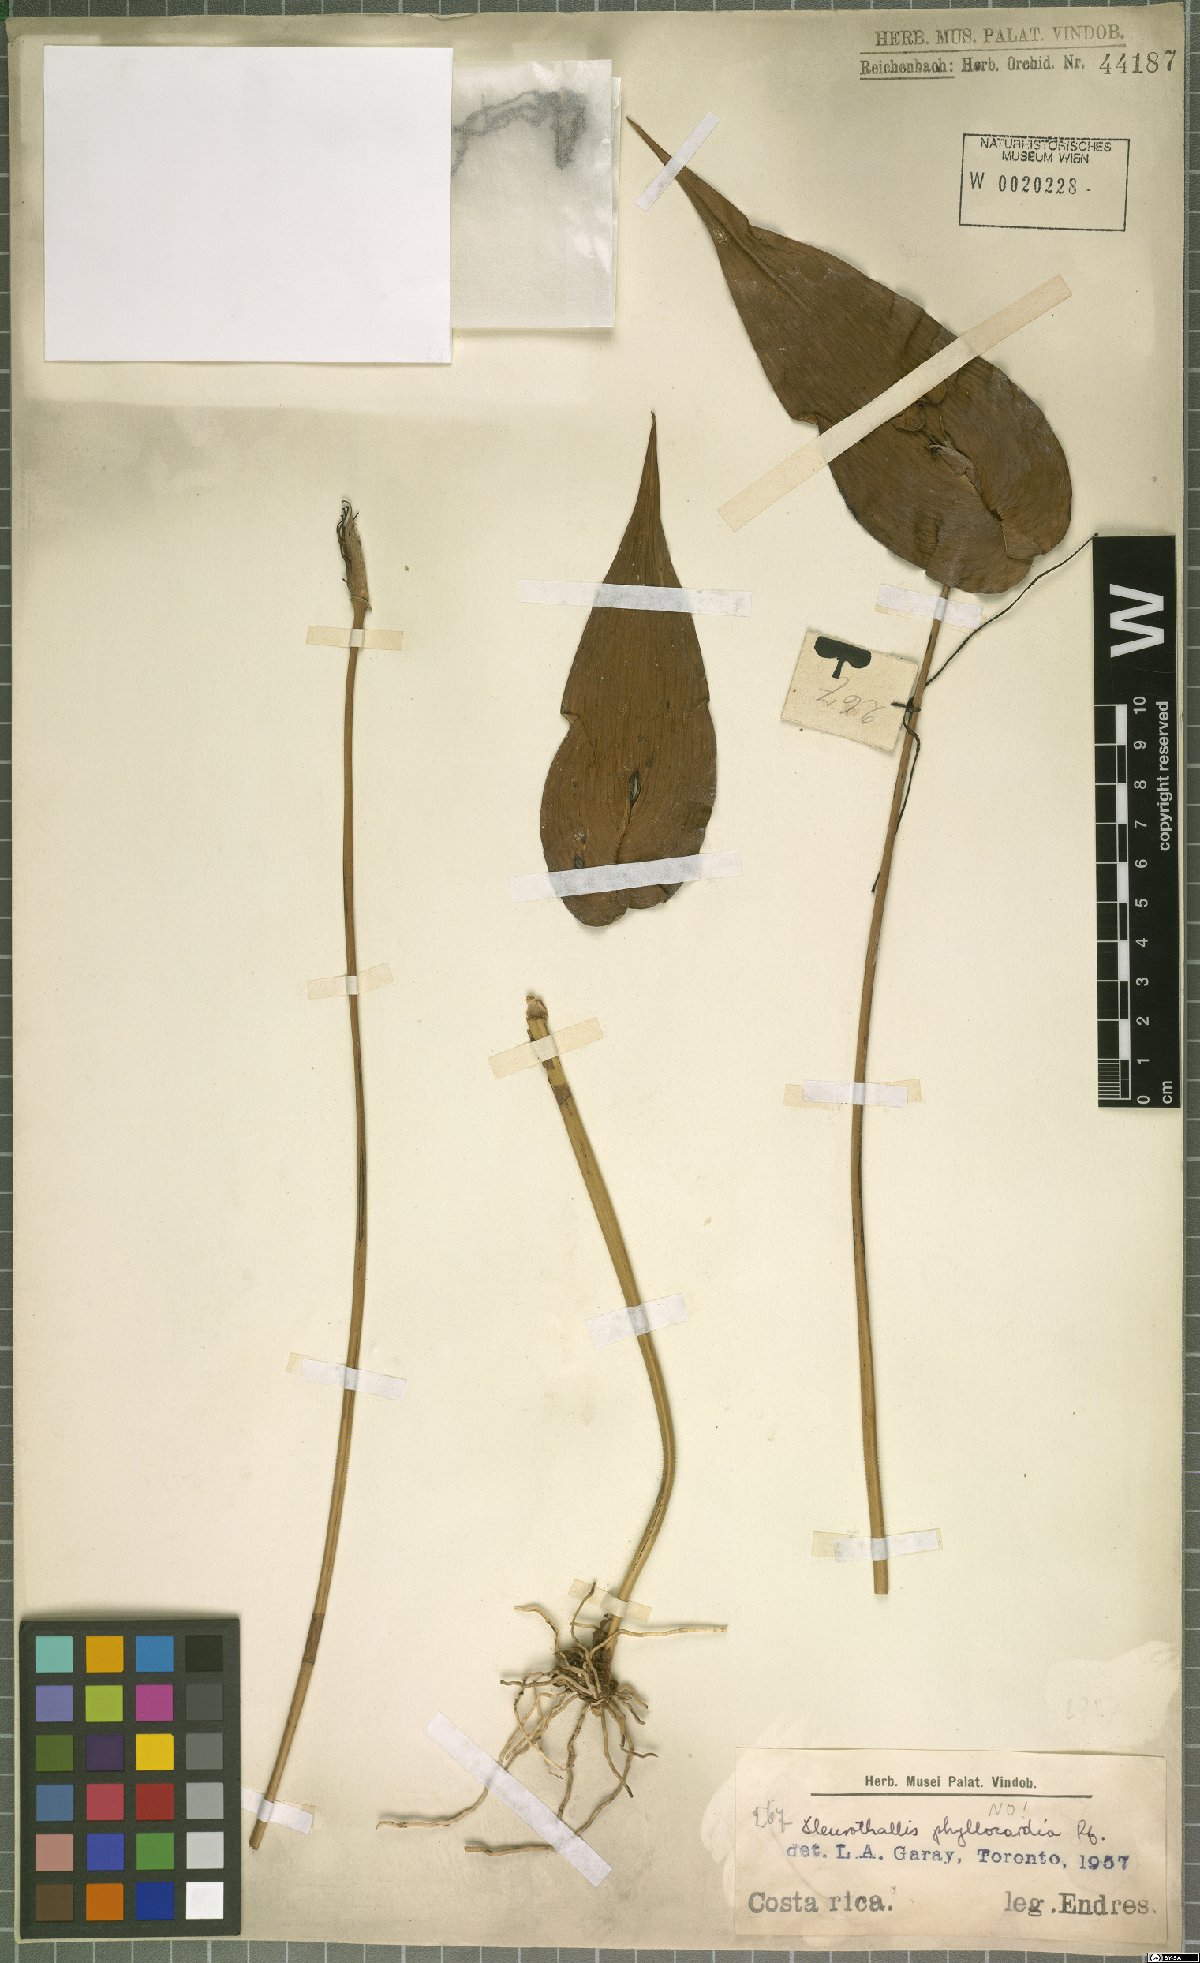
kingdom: Plantae
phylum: Tracheophyta
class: Liliopsida
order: Asparagales
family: Orchidaceae
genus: Pleurothallis
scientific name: Pleurothallis phyllocardia
